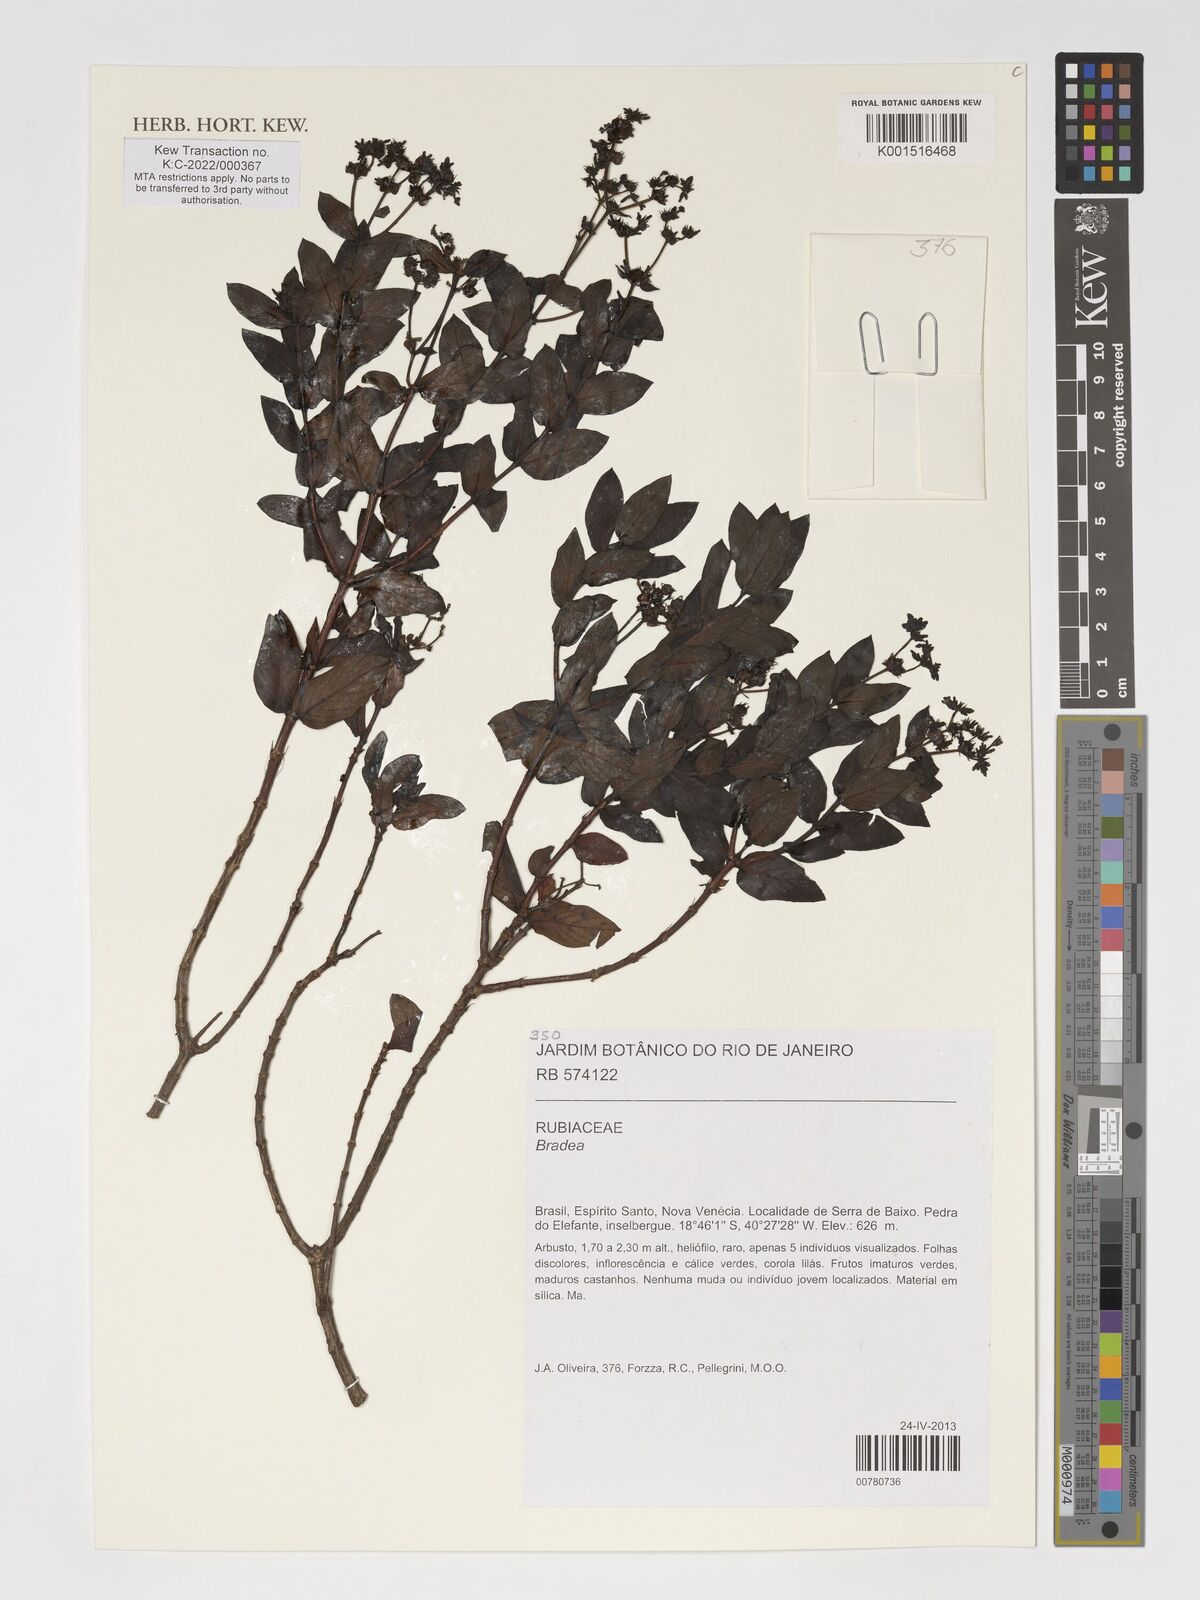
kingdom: Plantae
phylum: Tracheophyta
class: Magnoliopsida
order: Gentianales
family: Rubiaceae
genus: Bradea
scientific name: Bradea
